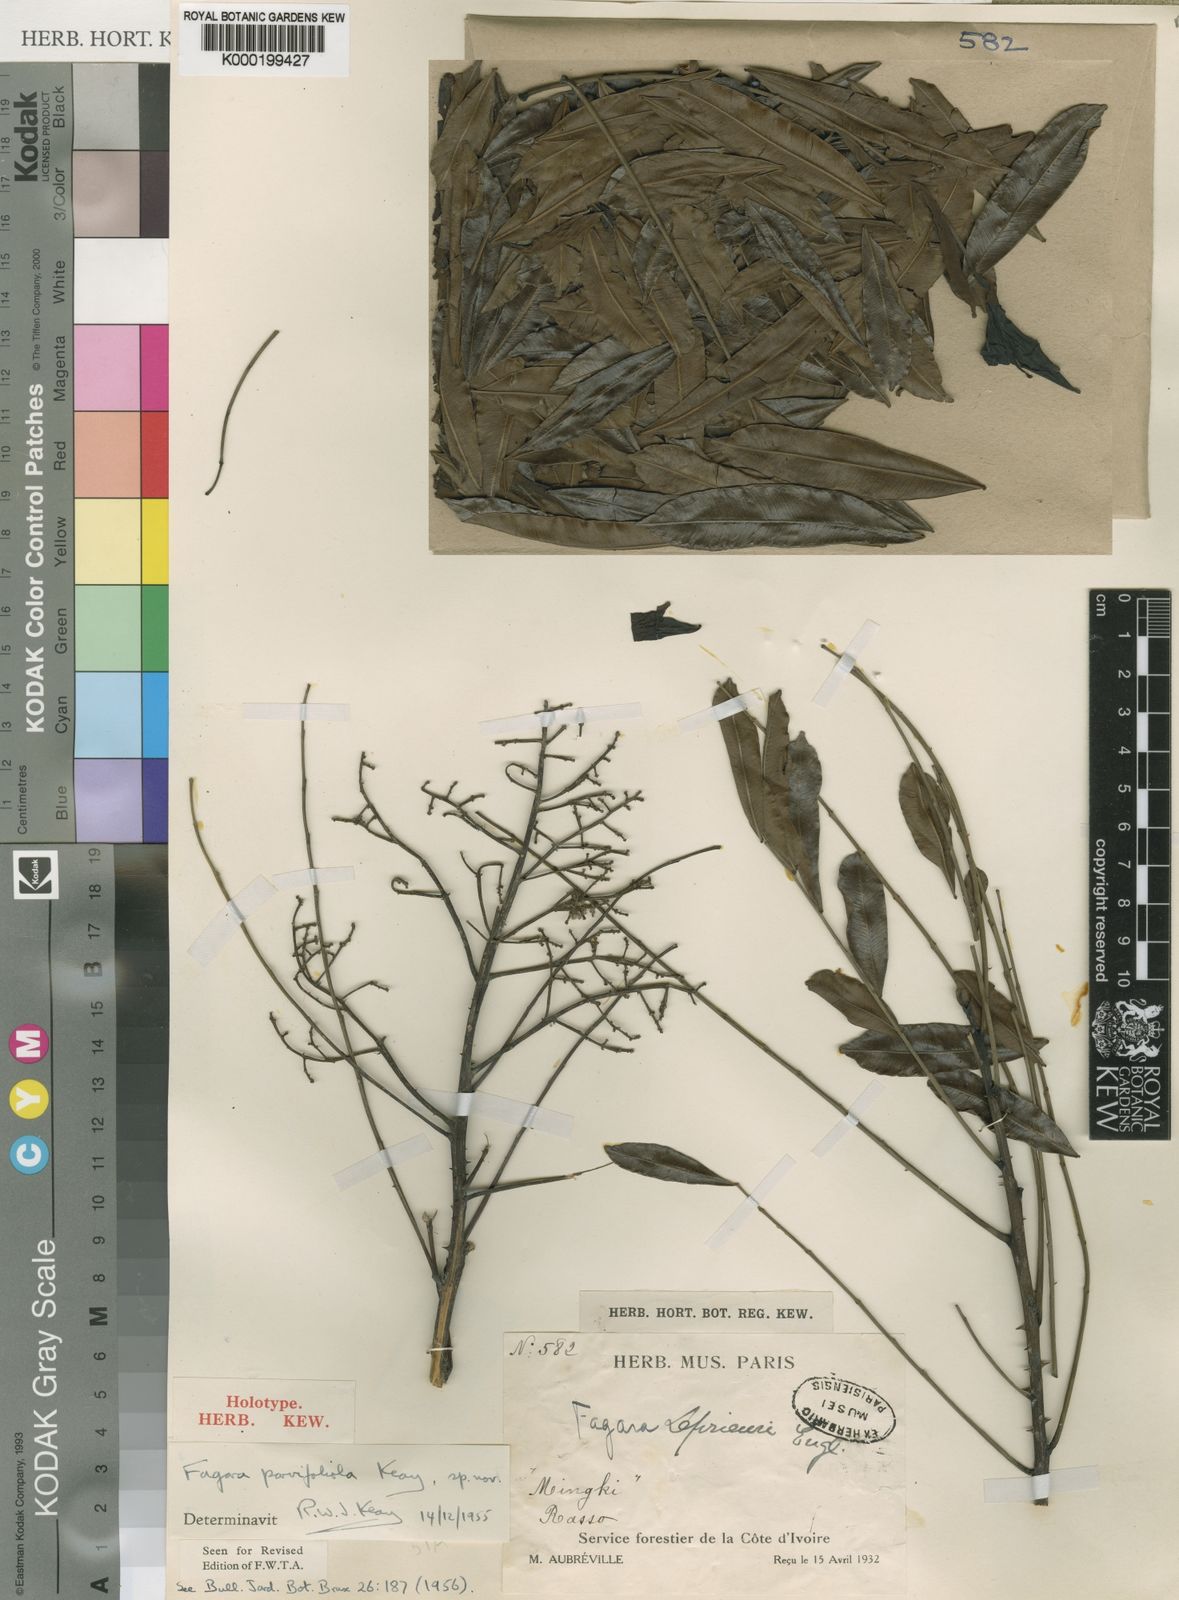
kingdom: Plantae
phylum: Tracheophyta
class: Magnoliopsida
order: Sapindales
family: Rutaceae
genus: Zanthoxylum
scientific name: Zanthoxylum
